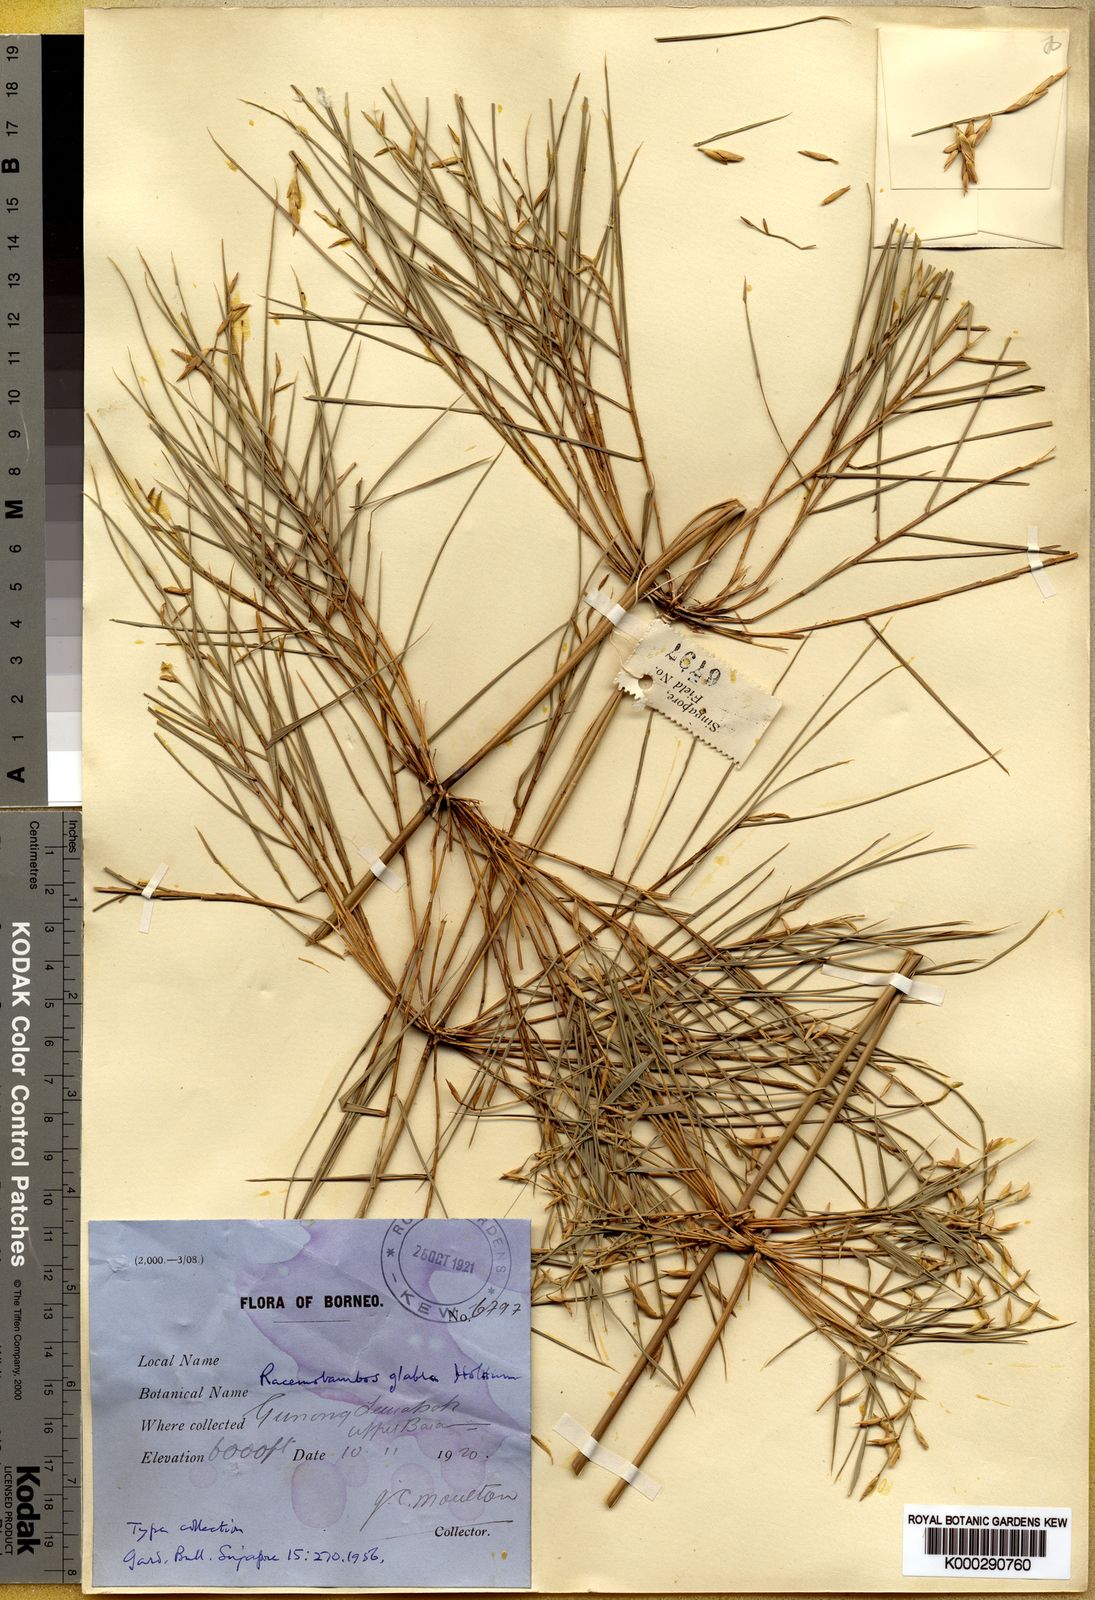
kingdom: Plantae
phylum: Tracheophyta
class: Liliopsida
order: Poales
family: Poaceae
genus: Racemobambos
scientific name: Racemobambos glabra
